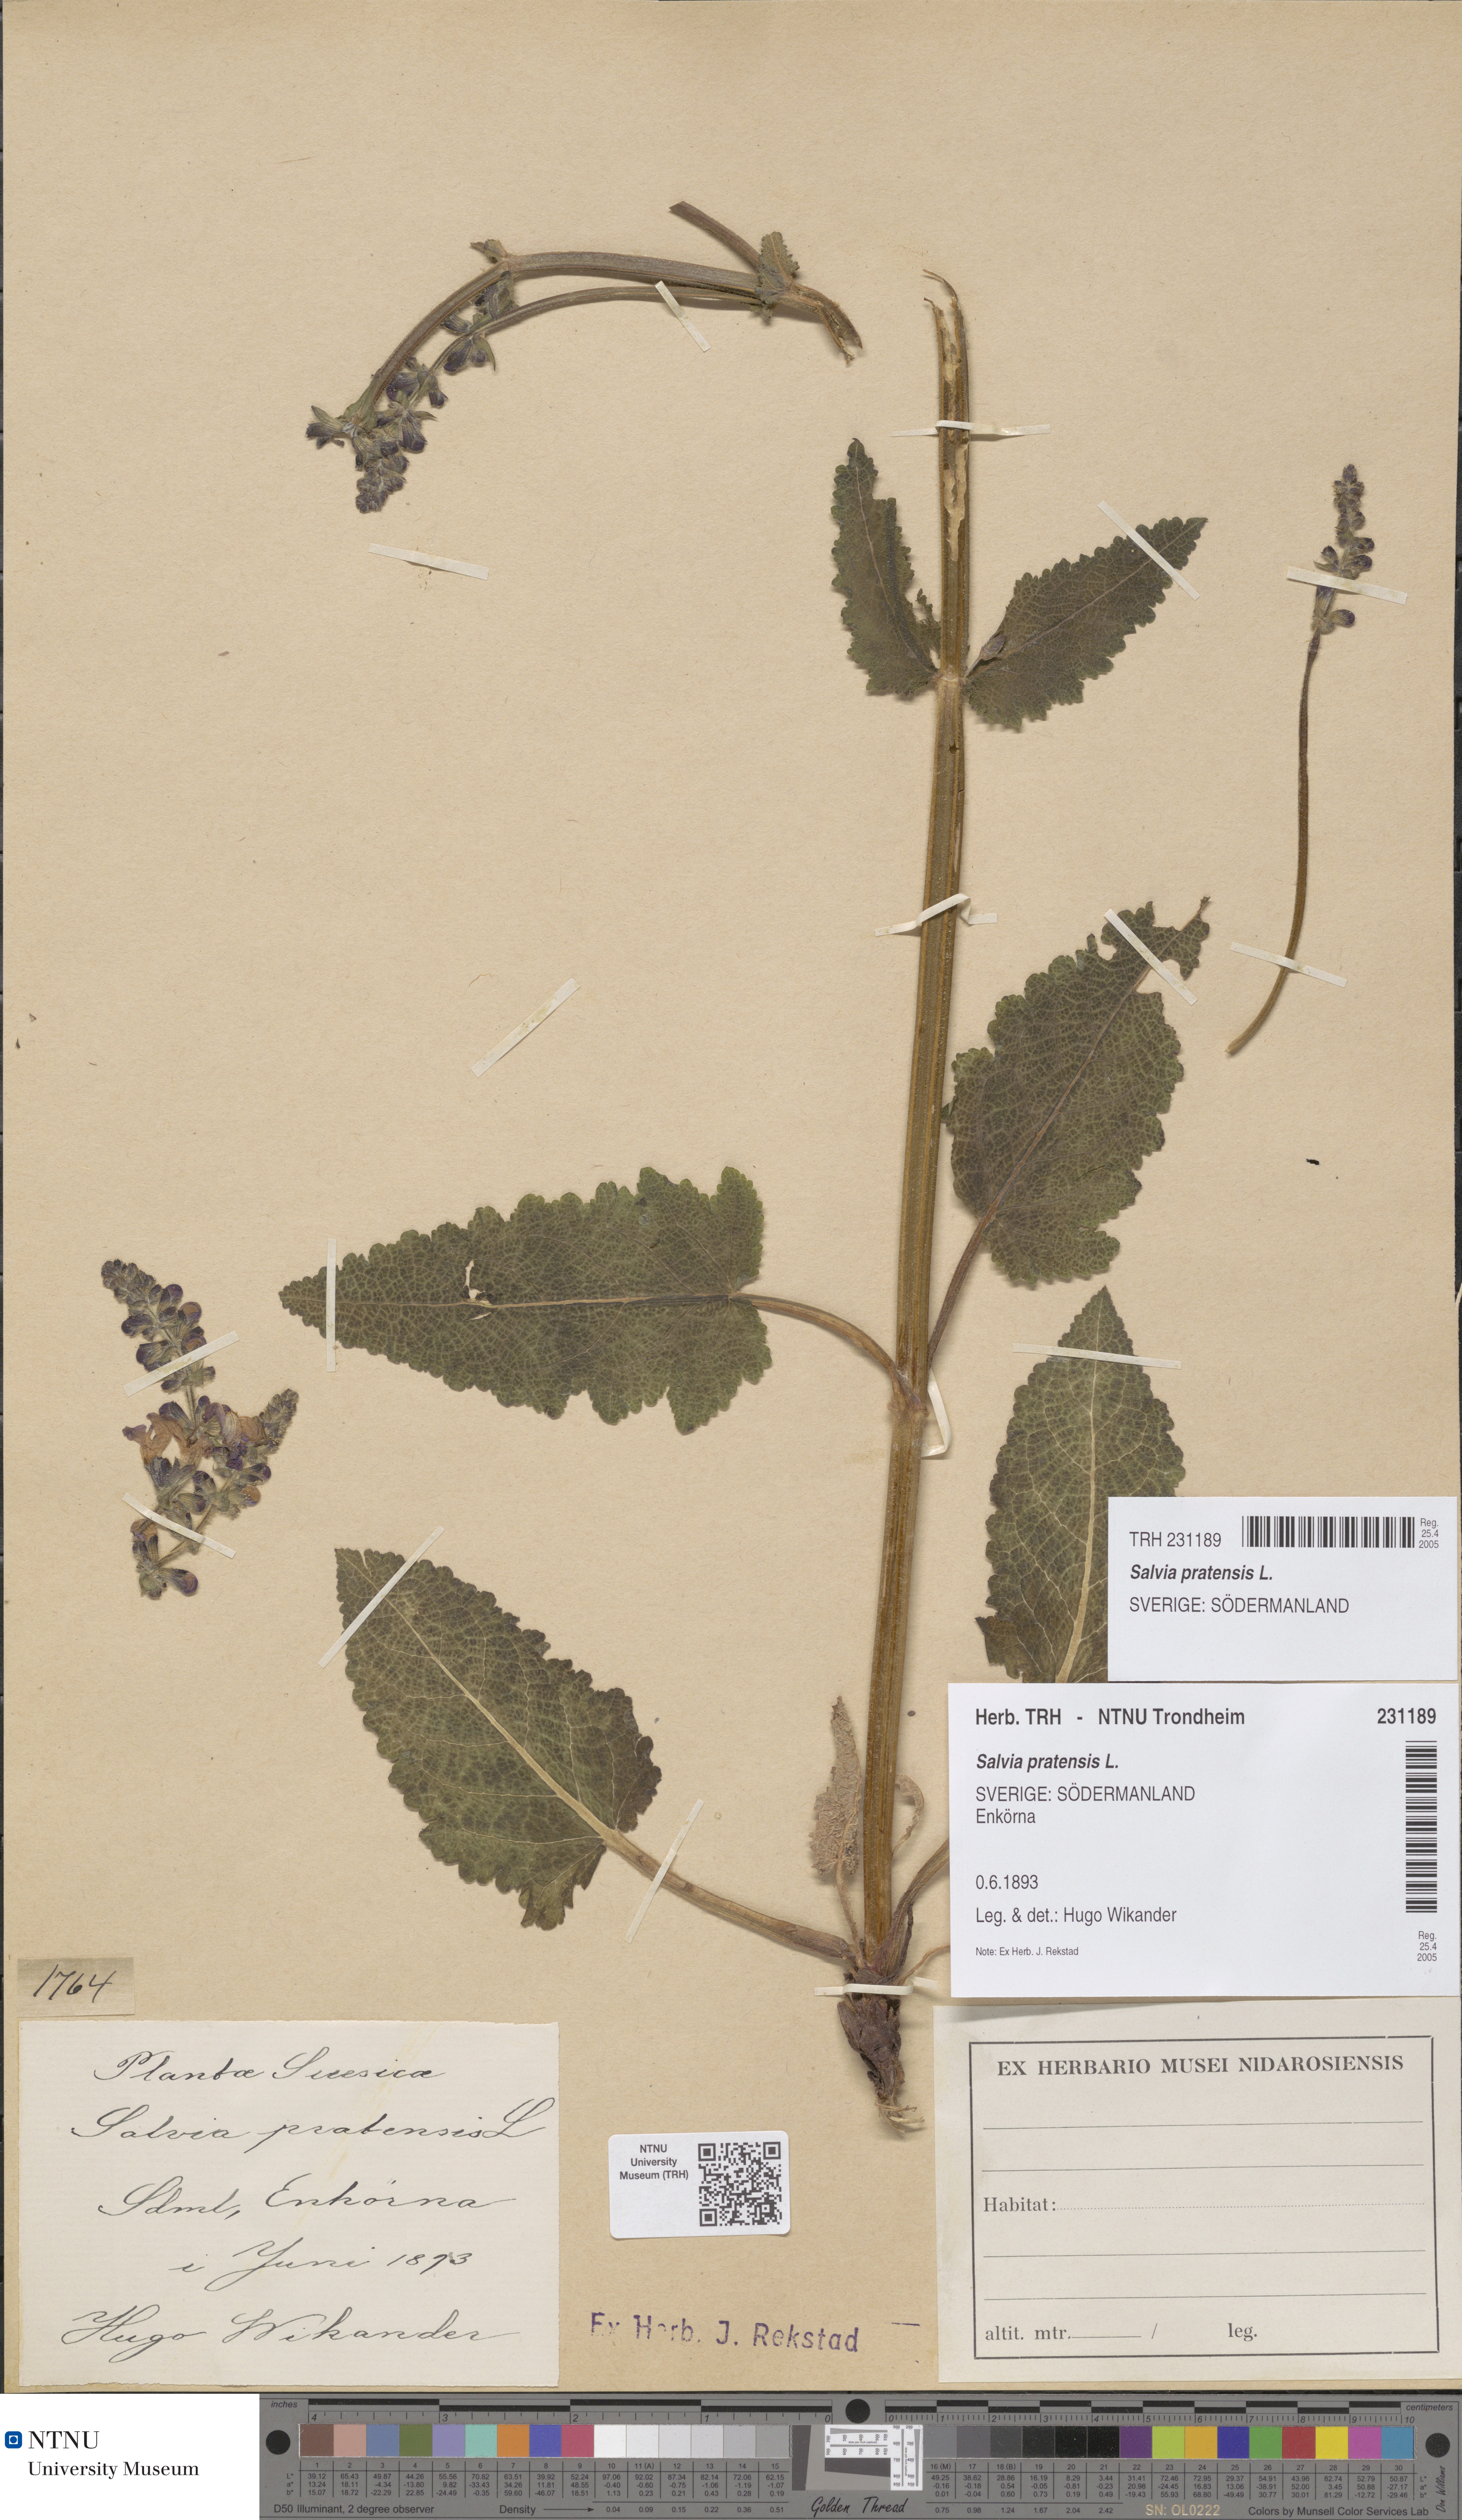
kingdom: Plantae
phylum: Tracheophyta
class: Magnoliopsida
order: Lamiales
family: Lamiaceae
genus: Salvia
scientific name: Salvia pratensis
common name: Meadow sage
